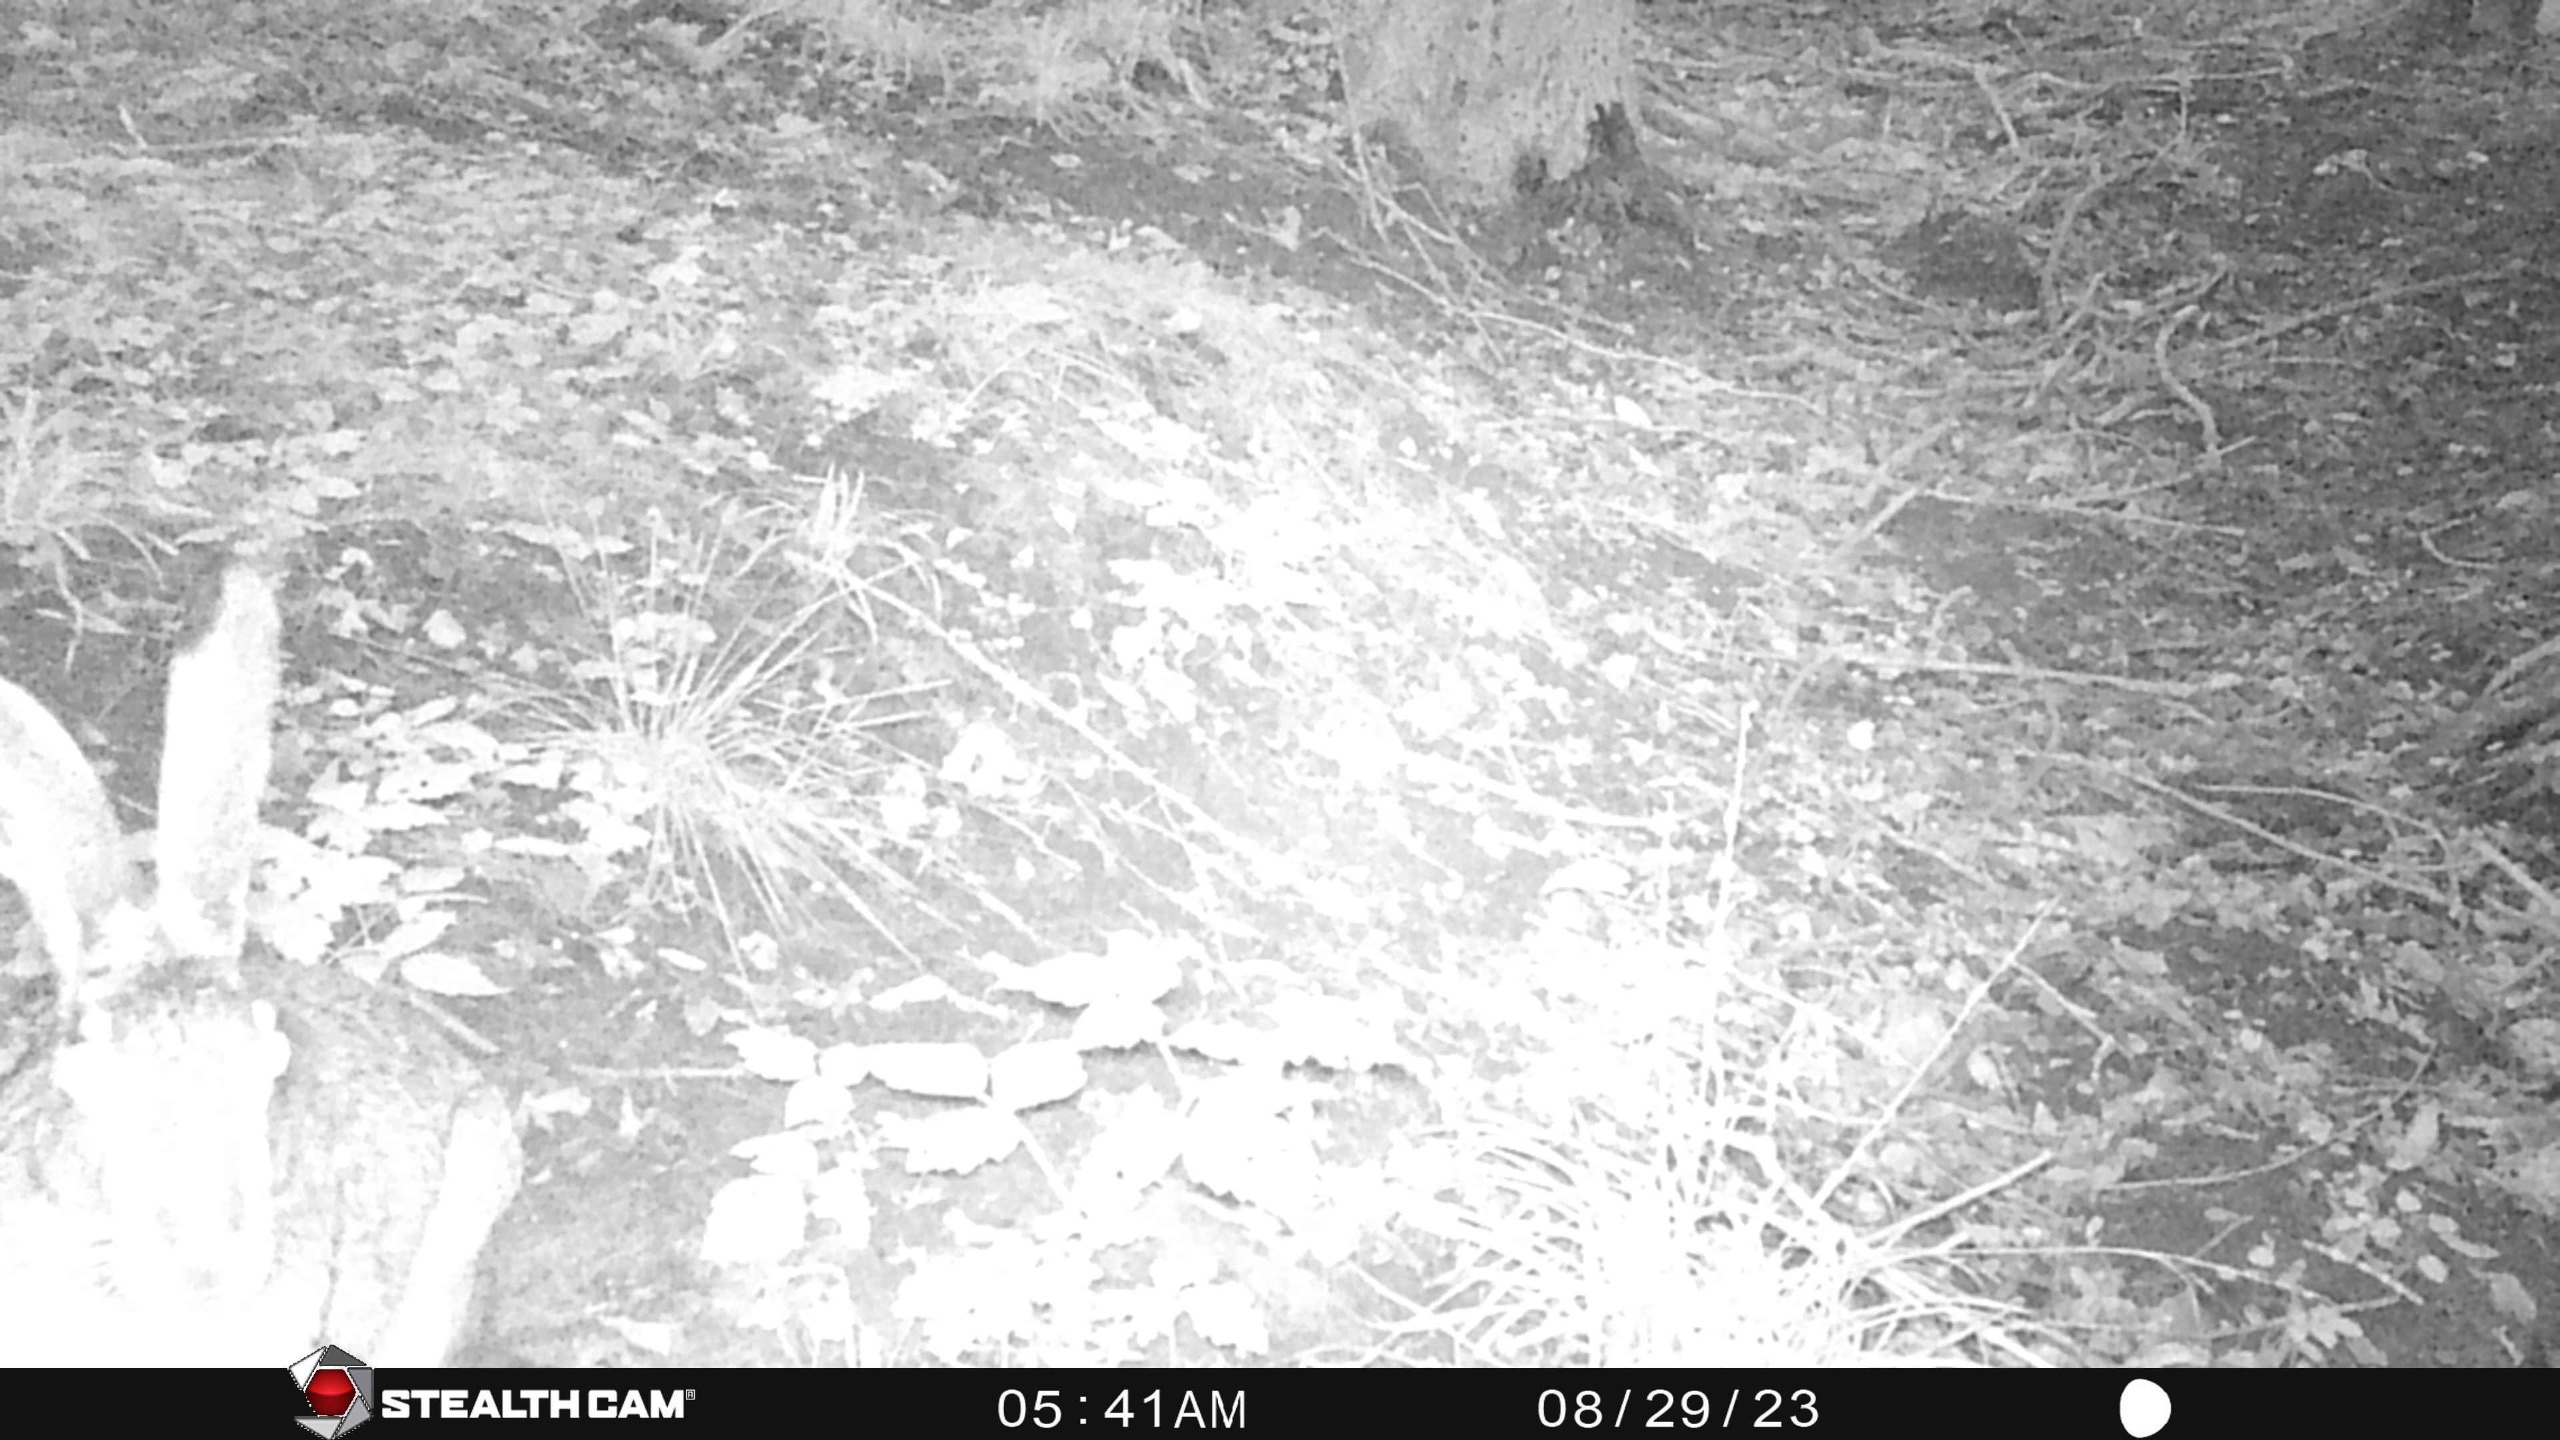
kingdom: Animalia
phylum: Chordata
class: Mammalia
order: Lagomorpha
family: Leporidae
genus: Lepus
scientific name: Lepus europaeus
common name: Hare
